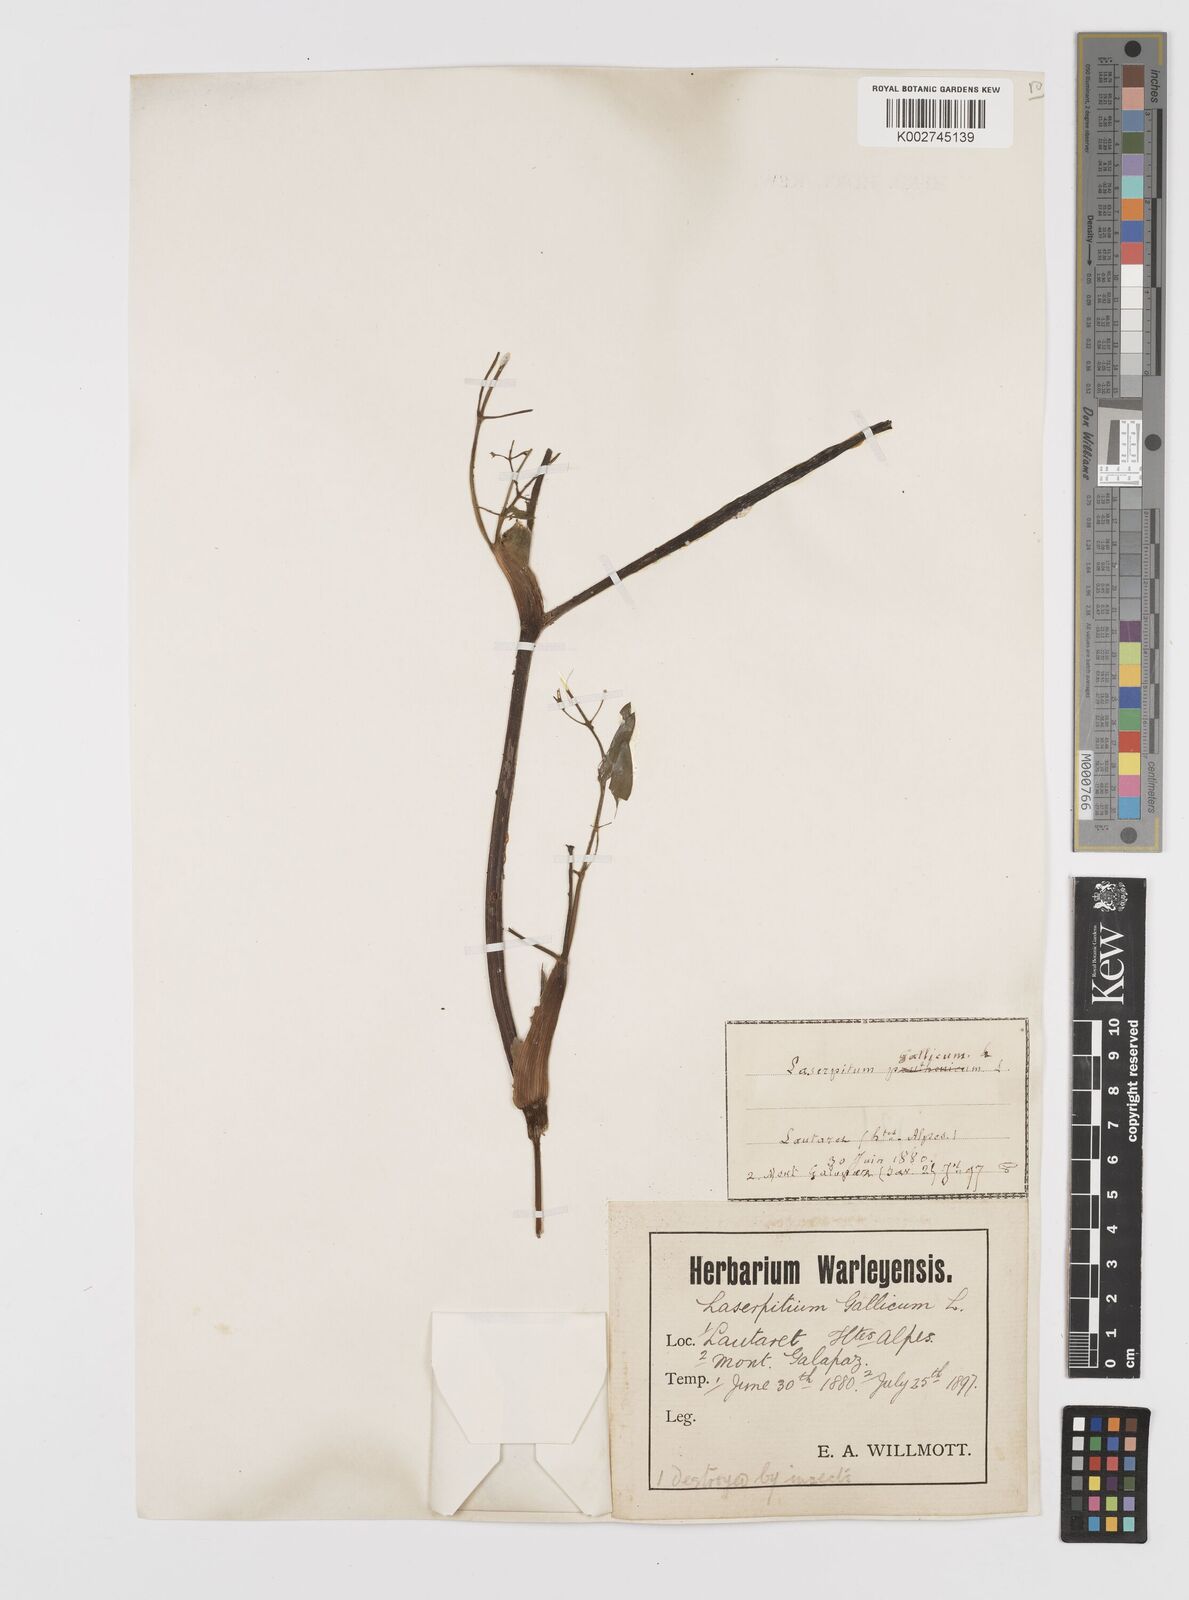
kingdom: Plantae
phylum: Tracheophyta
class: Magnoliopsida
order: Apiales
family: Apiaceae
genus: Laserpitium
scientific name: Laserpitium gallicum
